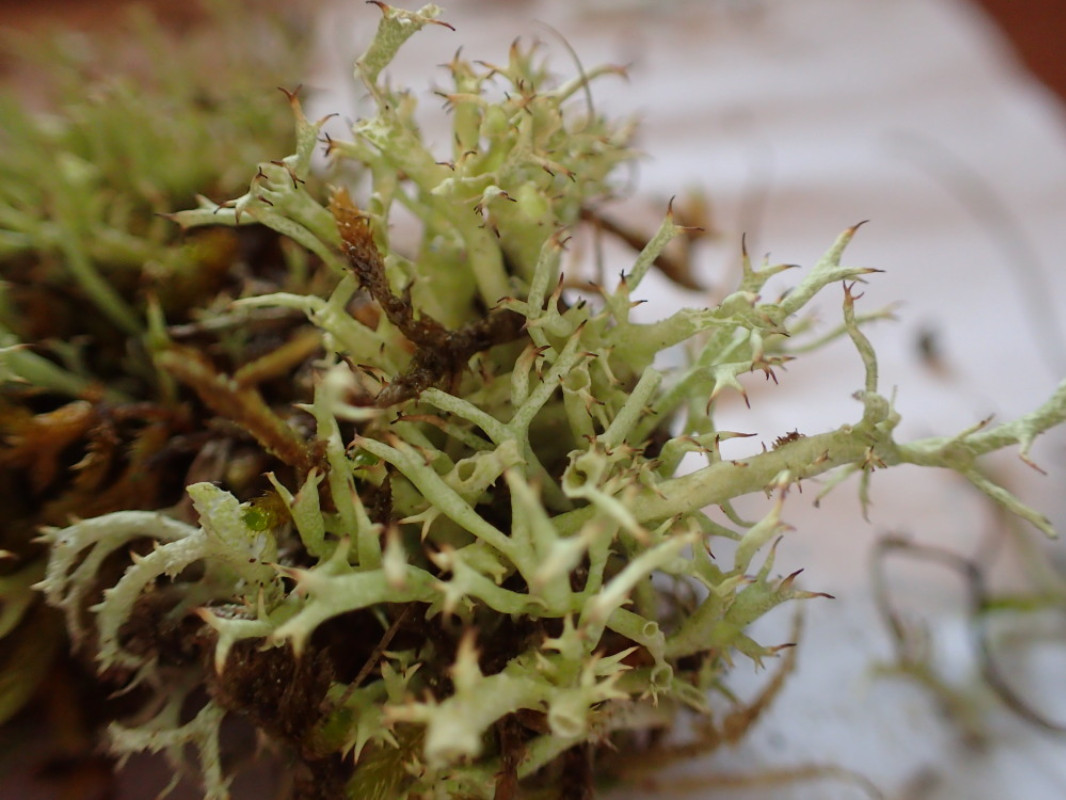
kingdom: Fungi
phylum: Ascomycota
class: Lecanoromycetes
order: Lecanorales
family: Cladoniaceae
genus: Cladonia
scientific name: Cladonia uncialis
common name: Thorn lichen
